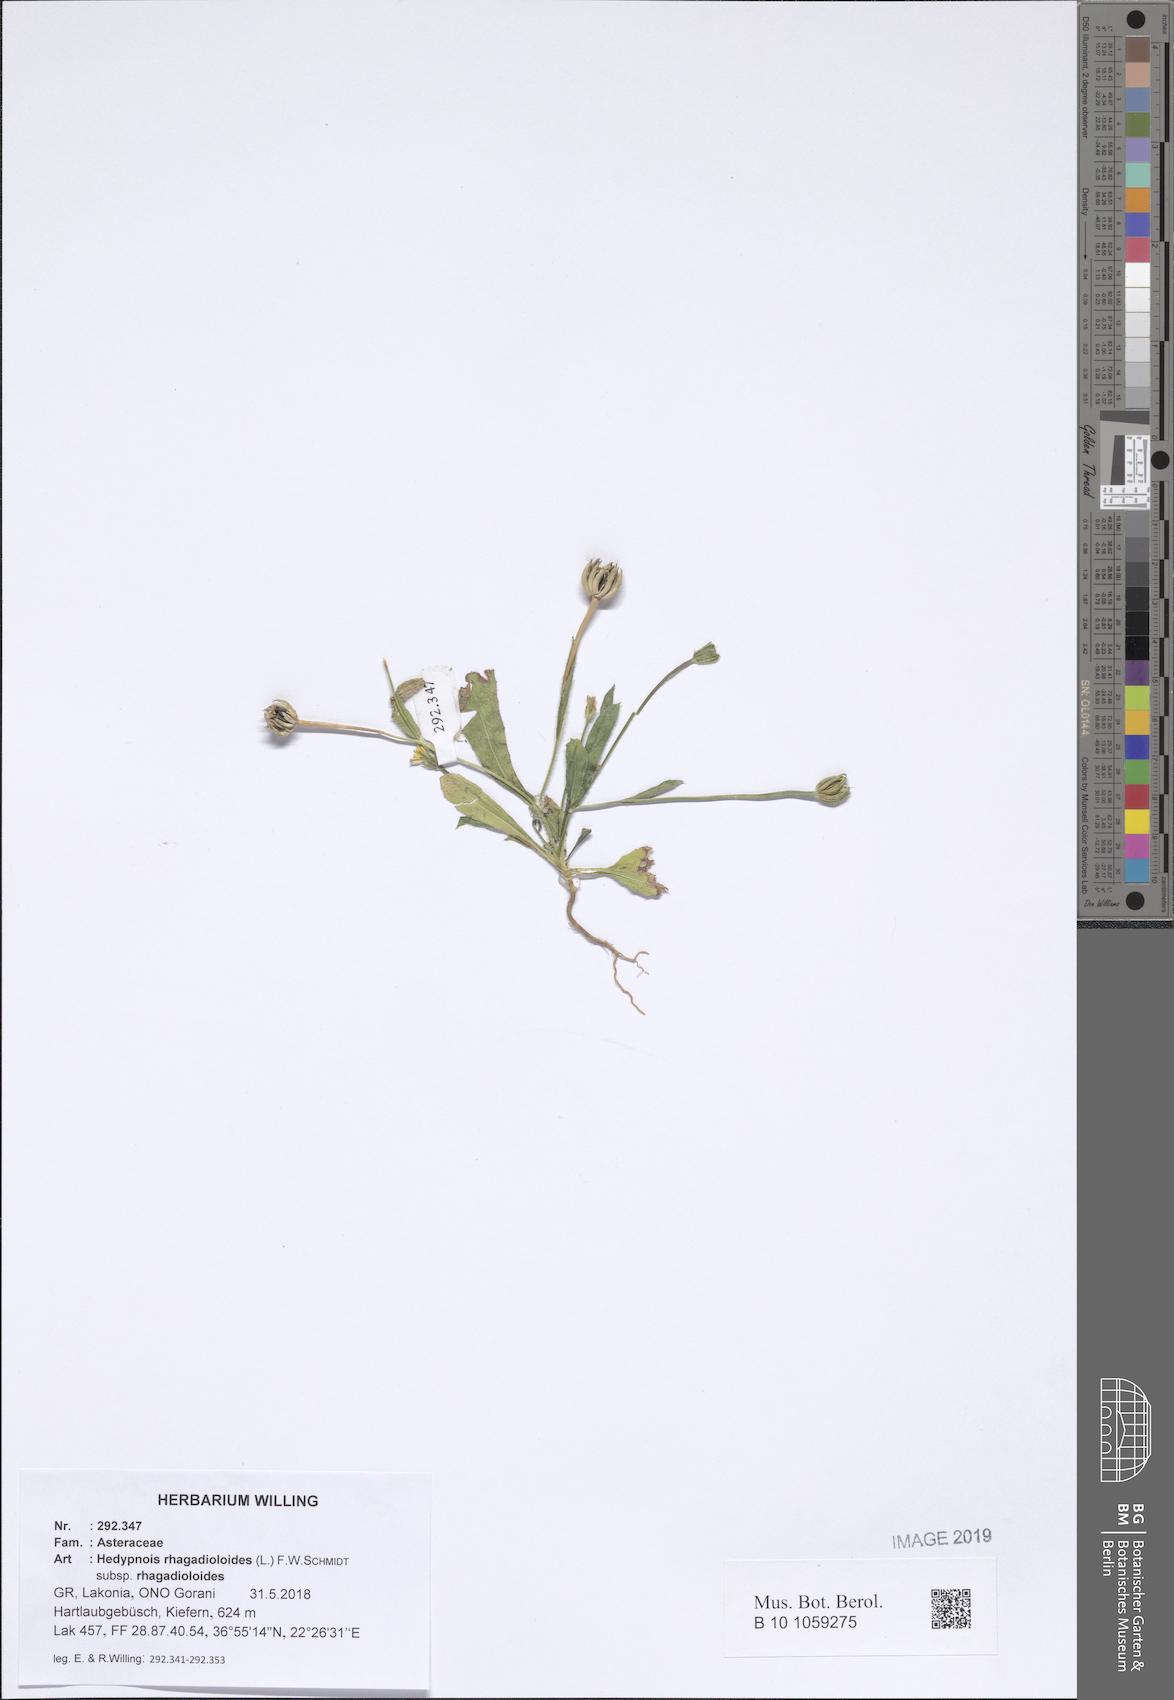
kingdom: Plantae
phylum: Tracheophyta
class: Magnoliopsida
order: Asterales
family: Asteraceae
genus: Hedypnois
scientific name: Hedypnois rhagadioloides
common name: Cretan weed
